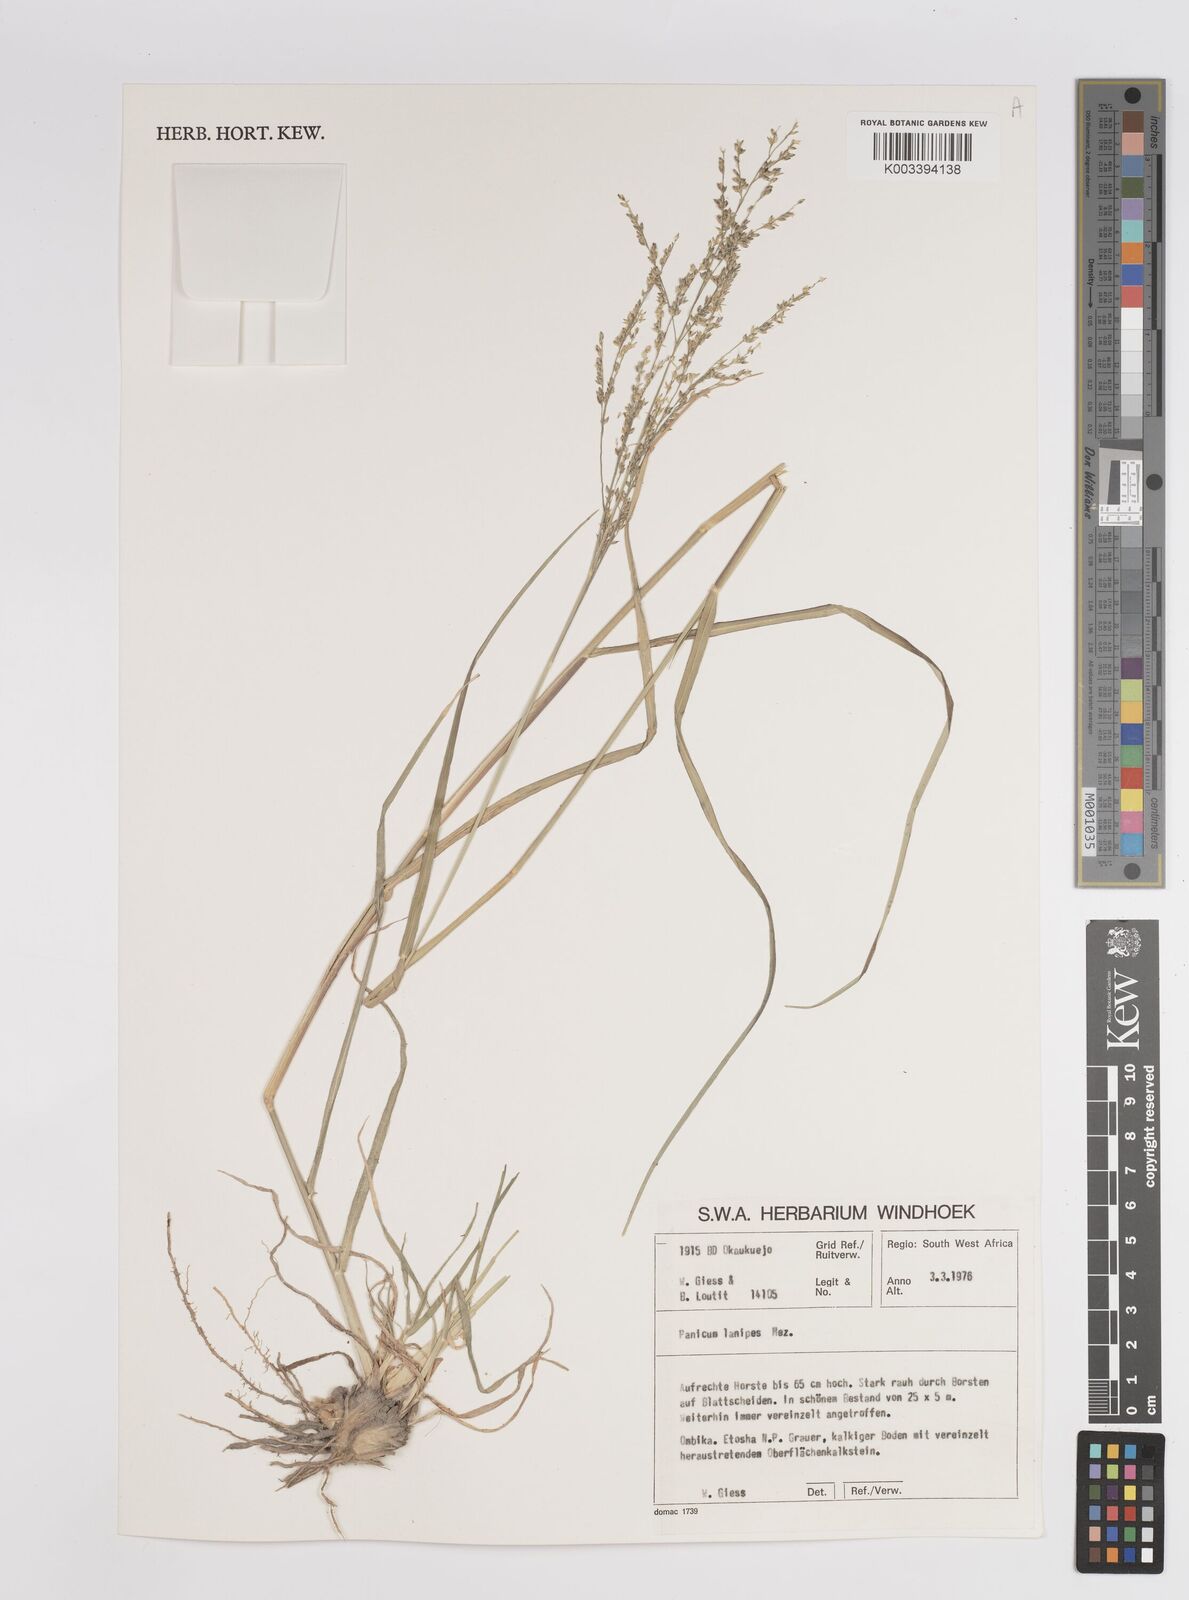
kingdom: Plantae
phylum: Tracheophyta
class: Liliopsida
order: Poales
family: Poaceae
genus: Panicum
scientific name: Panicum lanipes
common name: Wolvoet panicum
